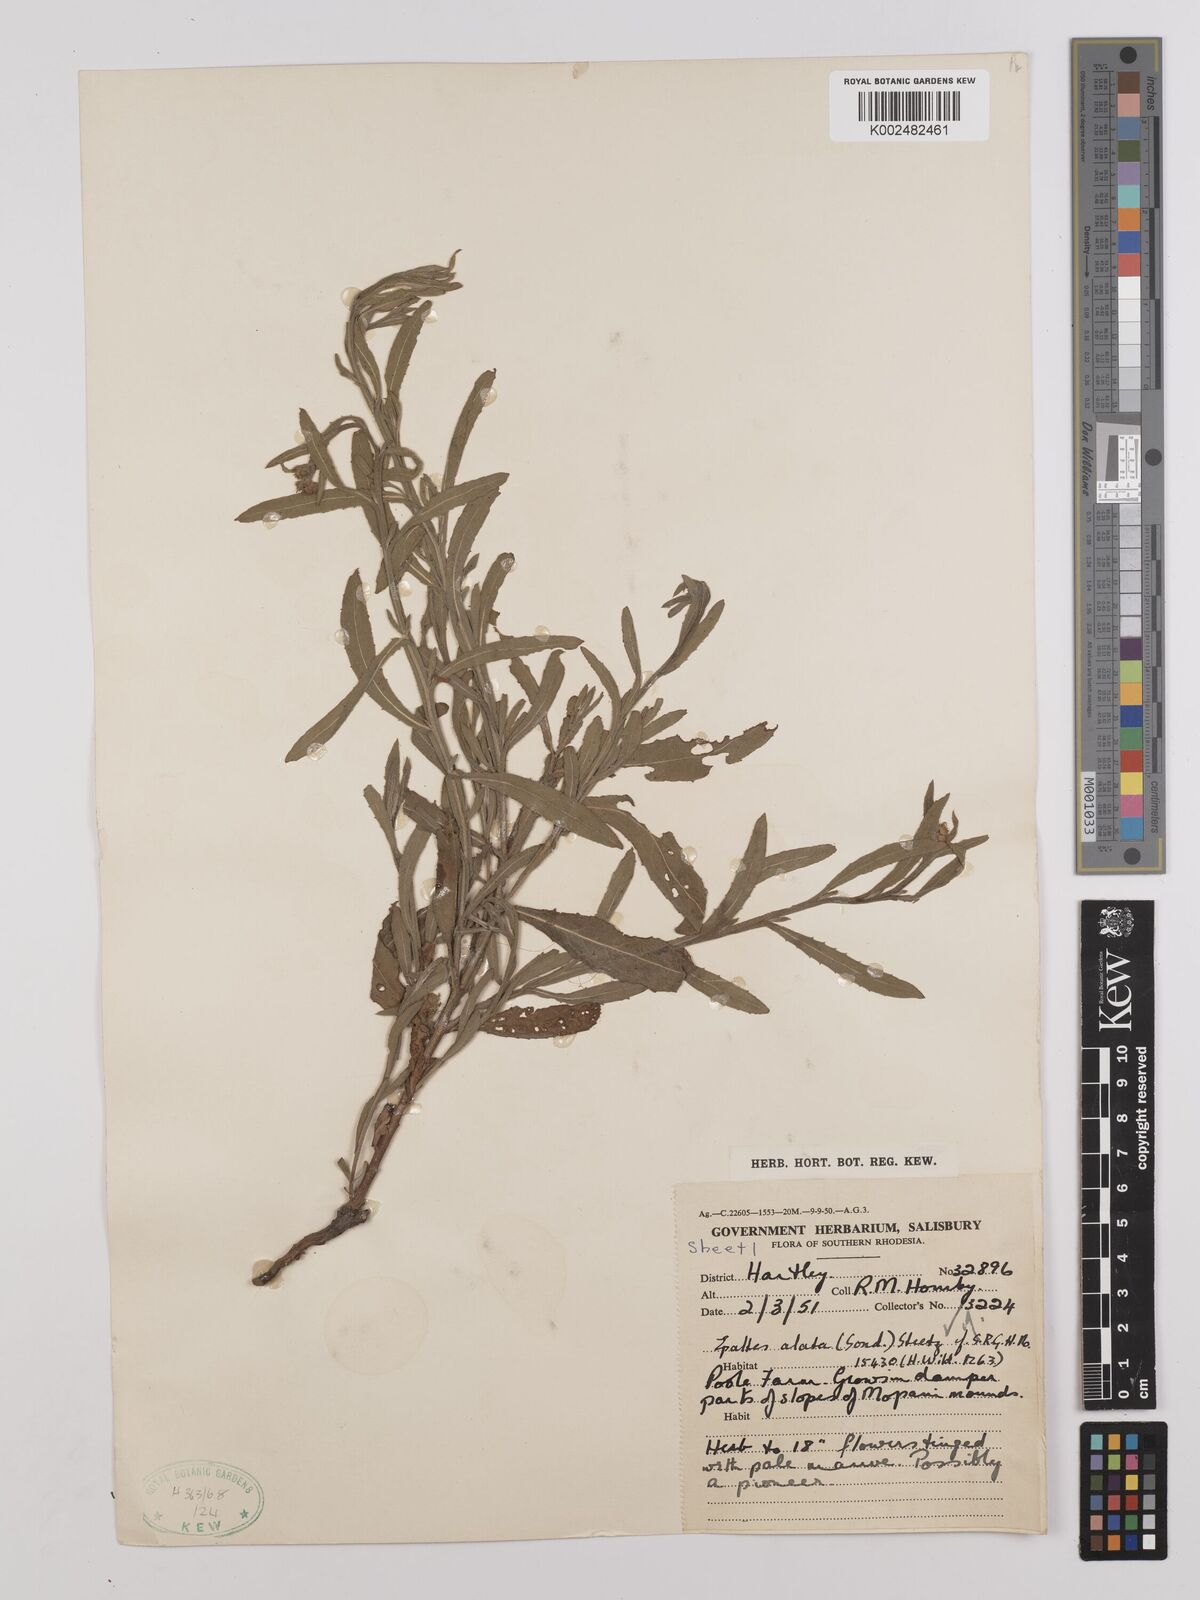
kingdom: Plantae
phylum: Tracheophyta
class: Magnoliopsida
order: Asterales
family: Asteraceae
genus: Litogyne
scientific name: Litogyne gariepina
